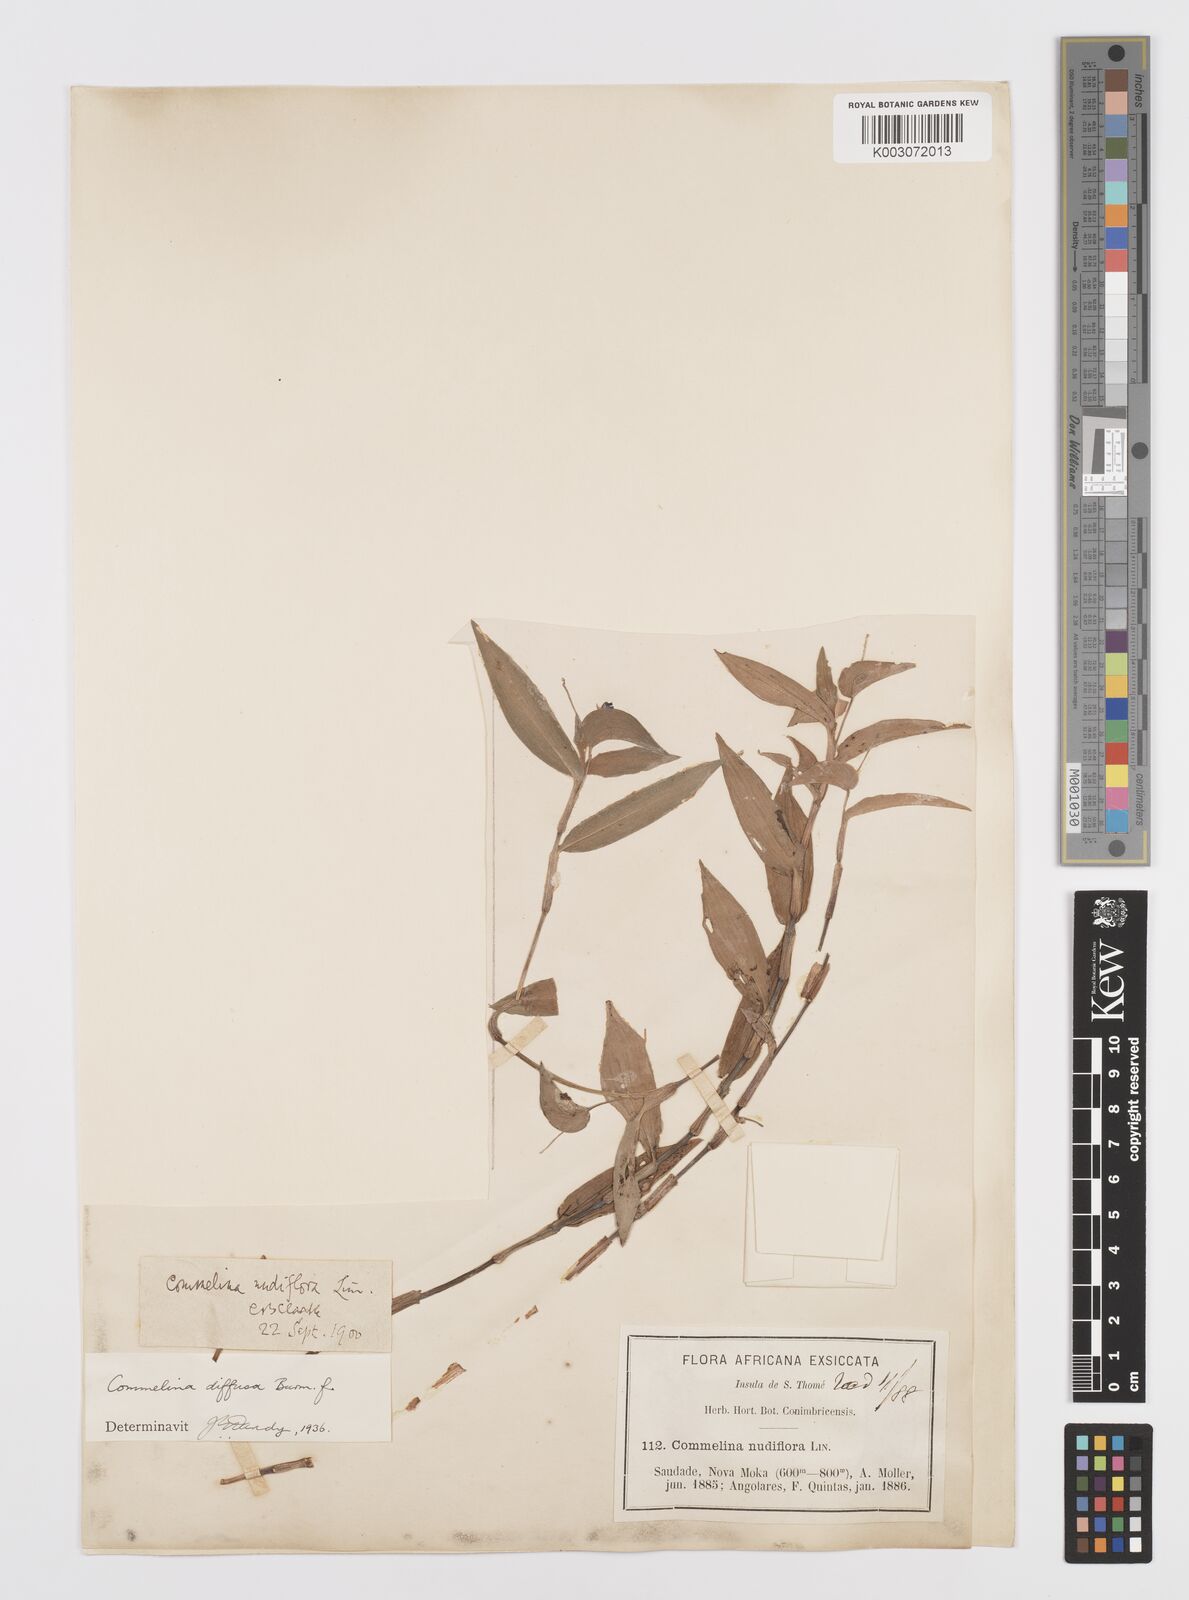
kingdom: Plantae
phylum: Tracheophyta
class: Liliopsida
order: Commelinales
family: Commelinaceae
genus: Commelina
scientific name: Commelina diffusa
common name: Climbing dayflower
